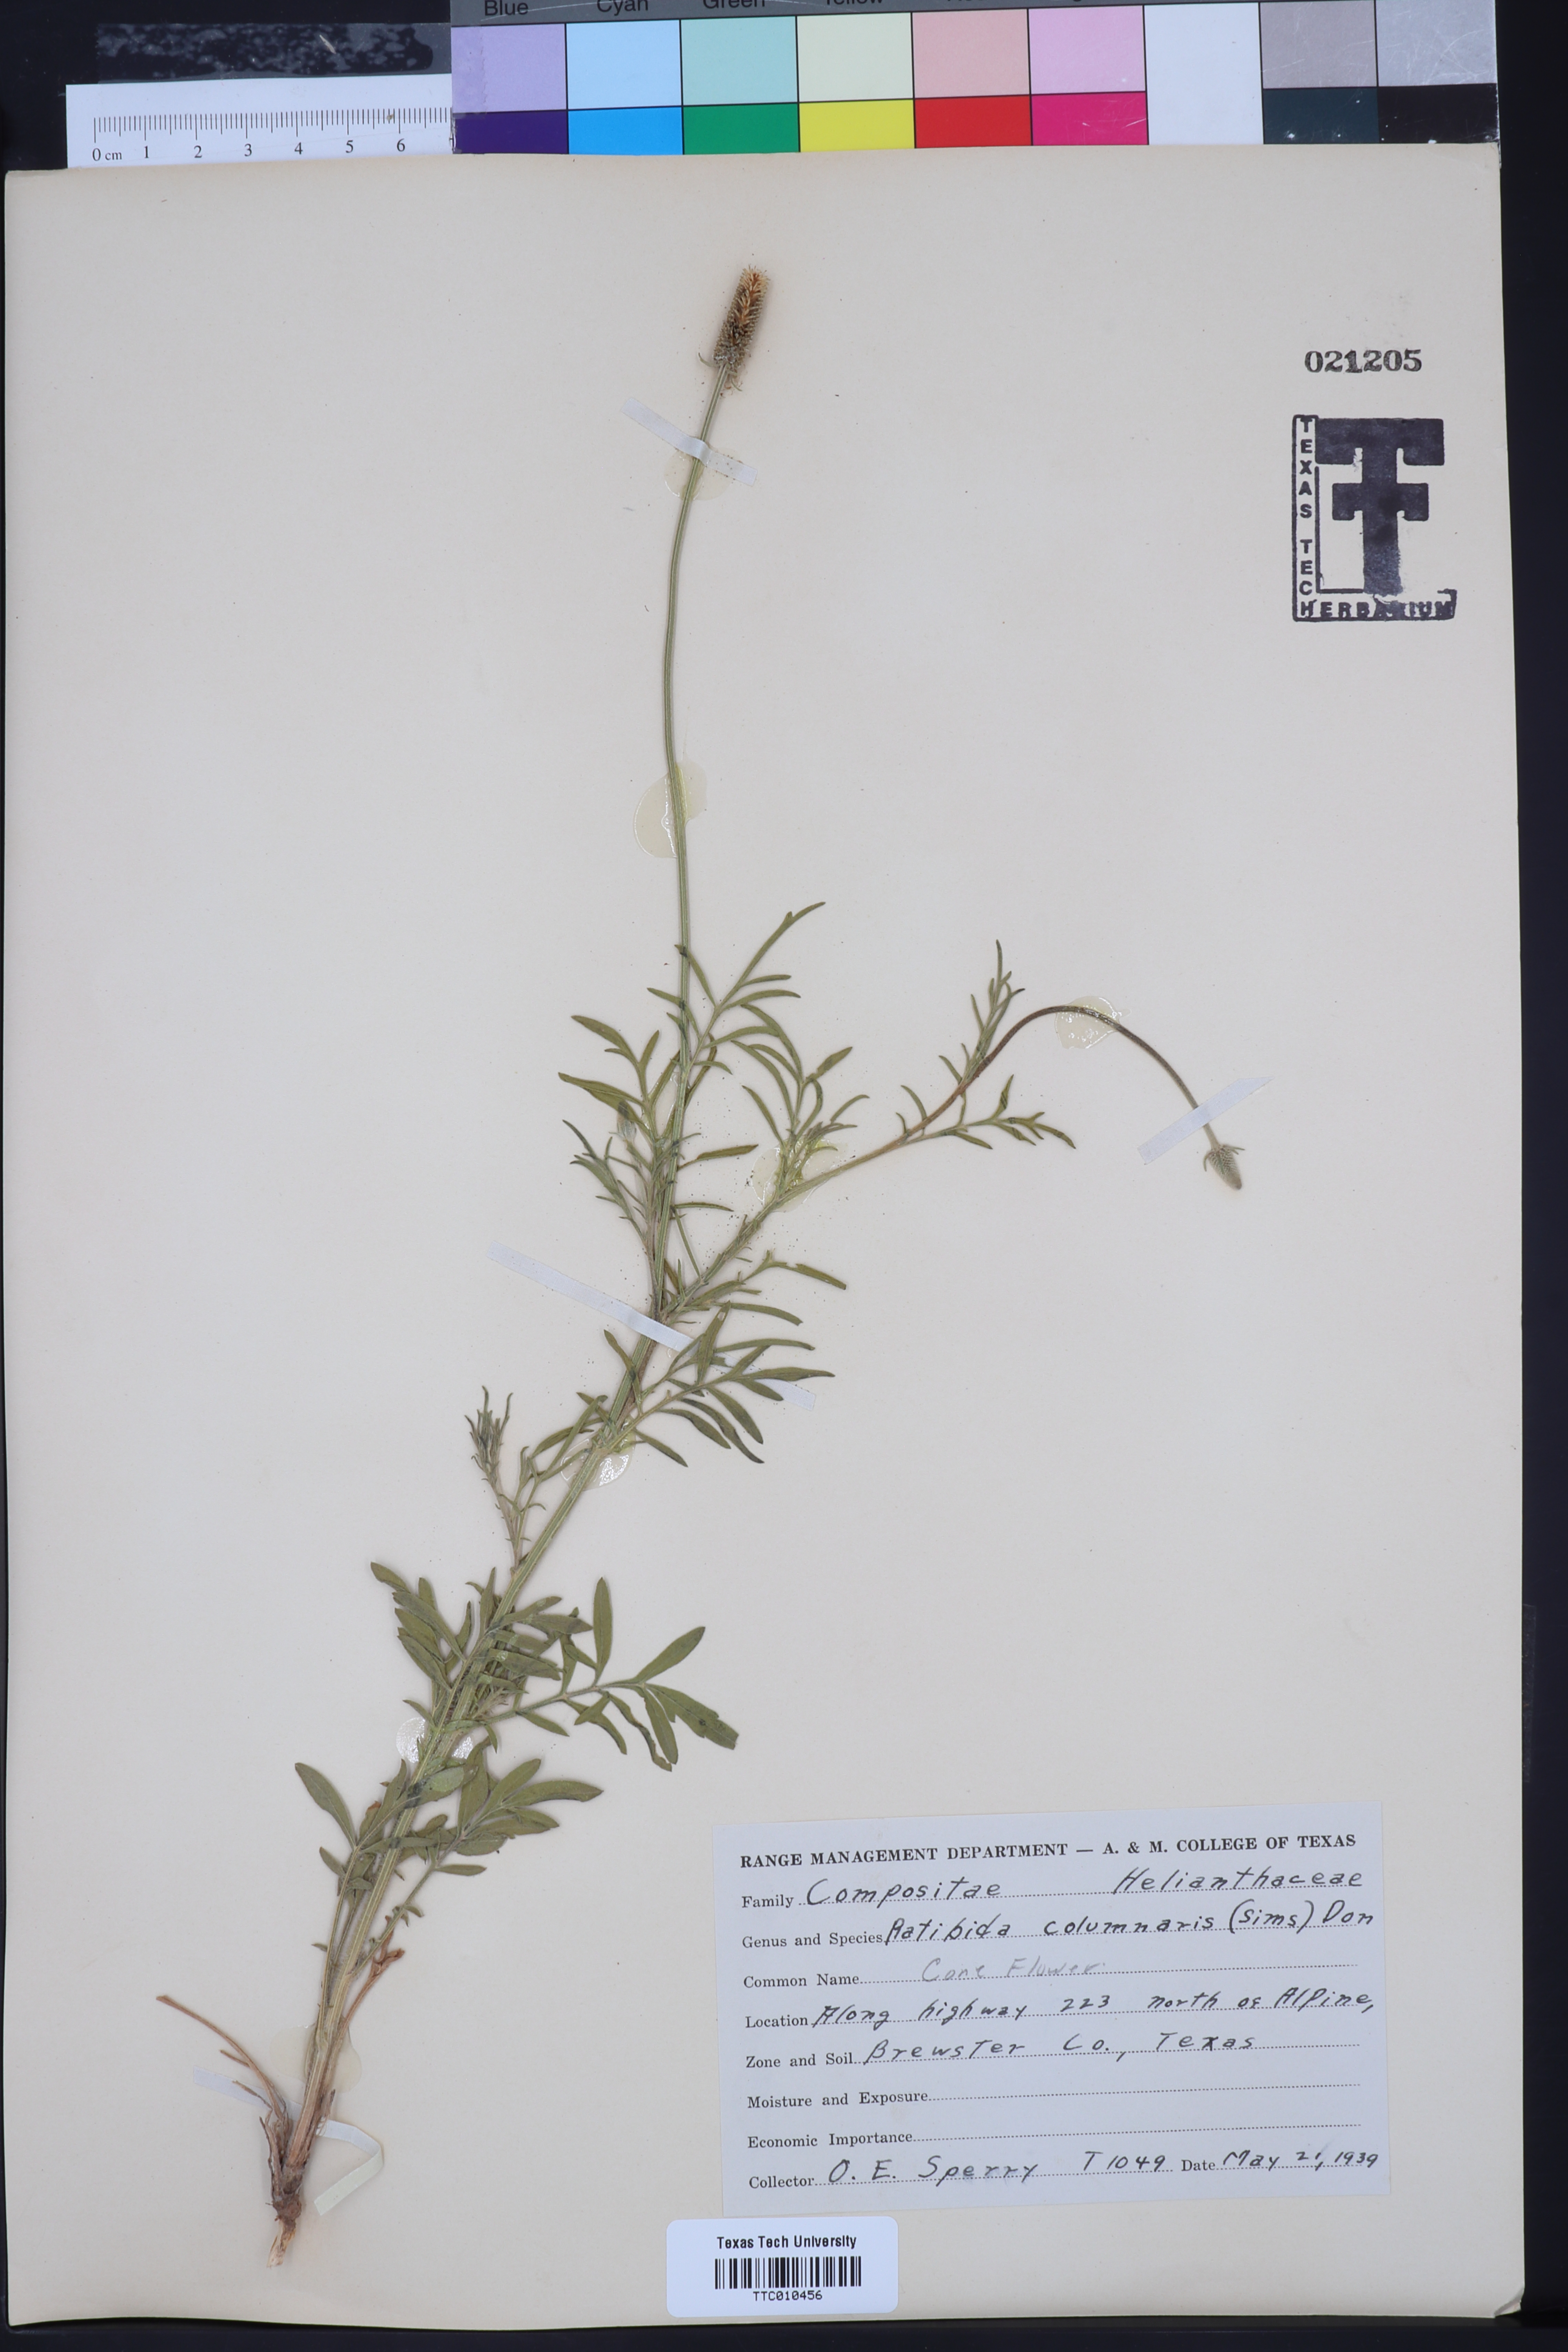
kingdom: Plantae
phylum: Tracheophyta
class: Magnoliopsida
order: Asterales
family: Asteraceae
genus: Ratibida
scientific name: Ratibida columnifera
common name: Prairie coneflower
